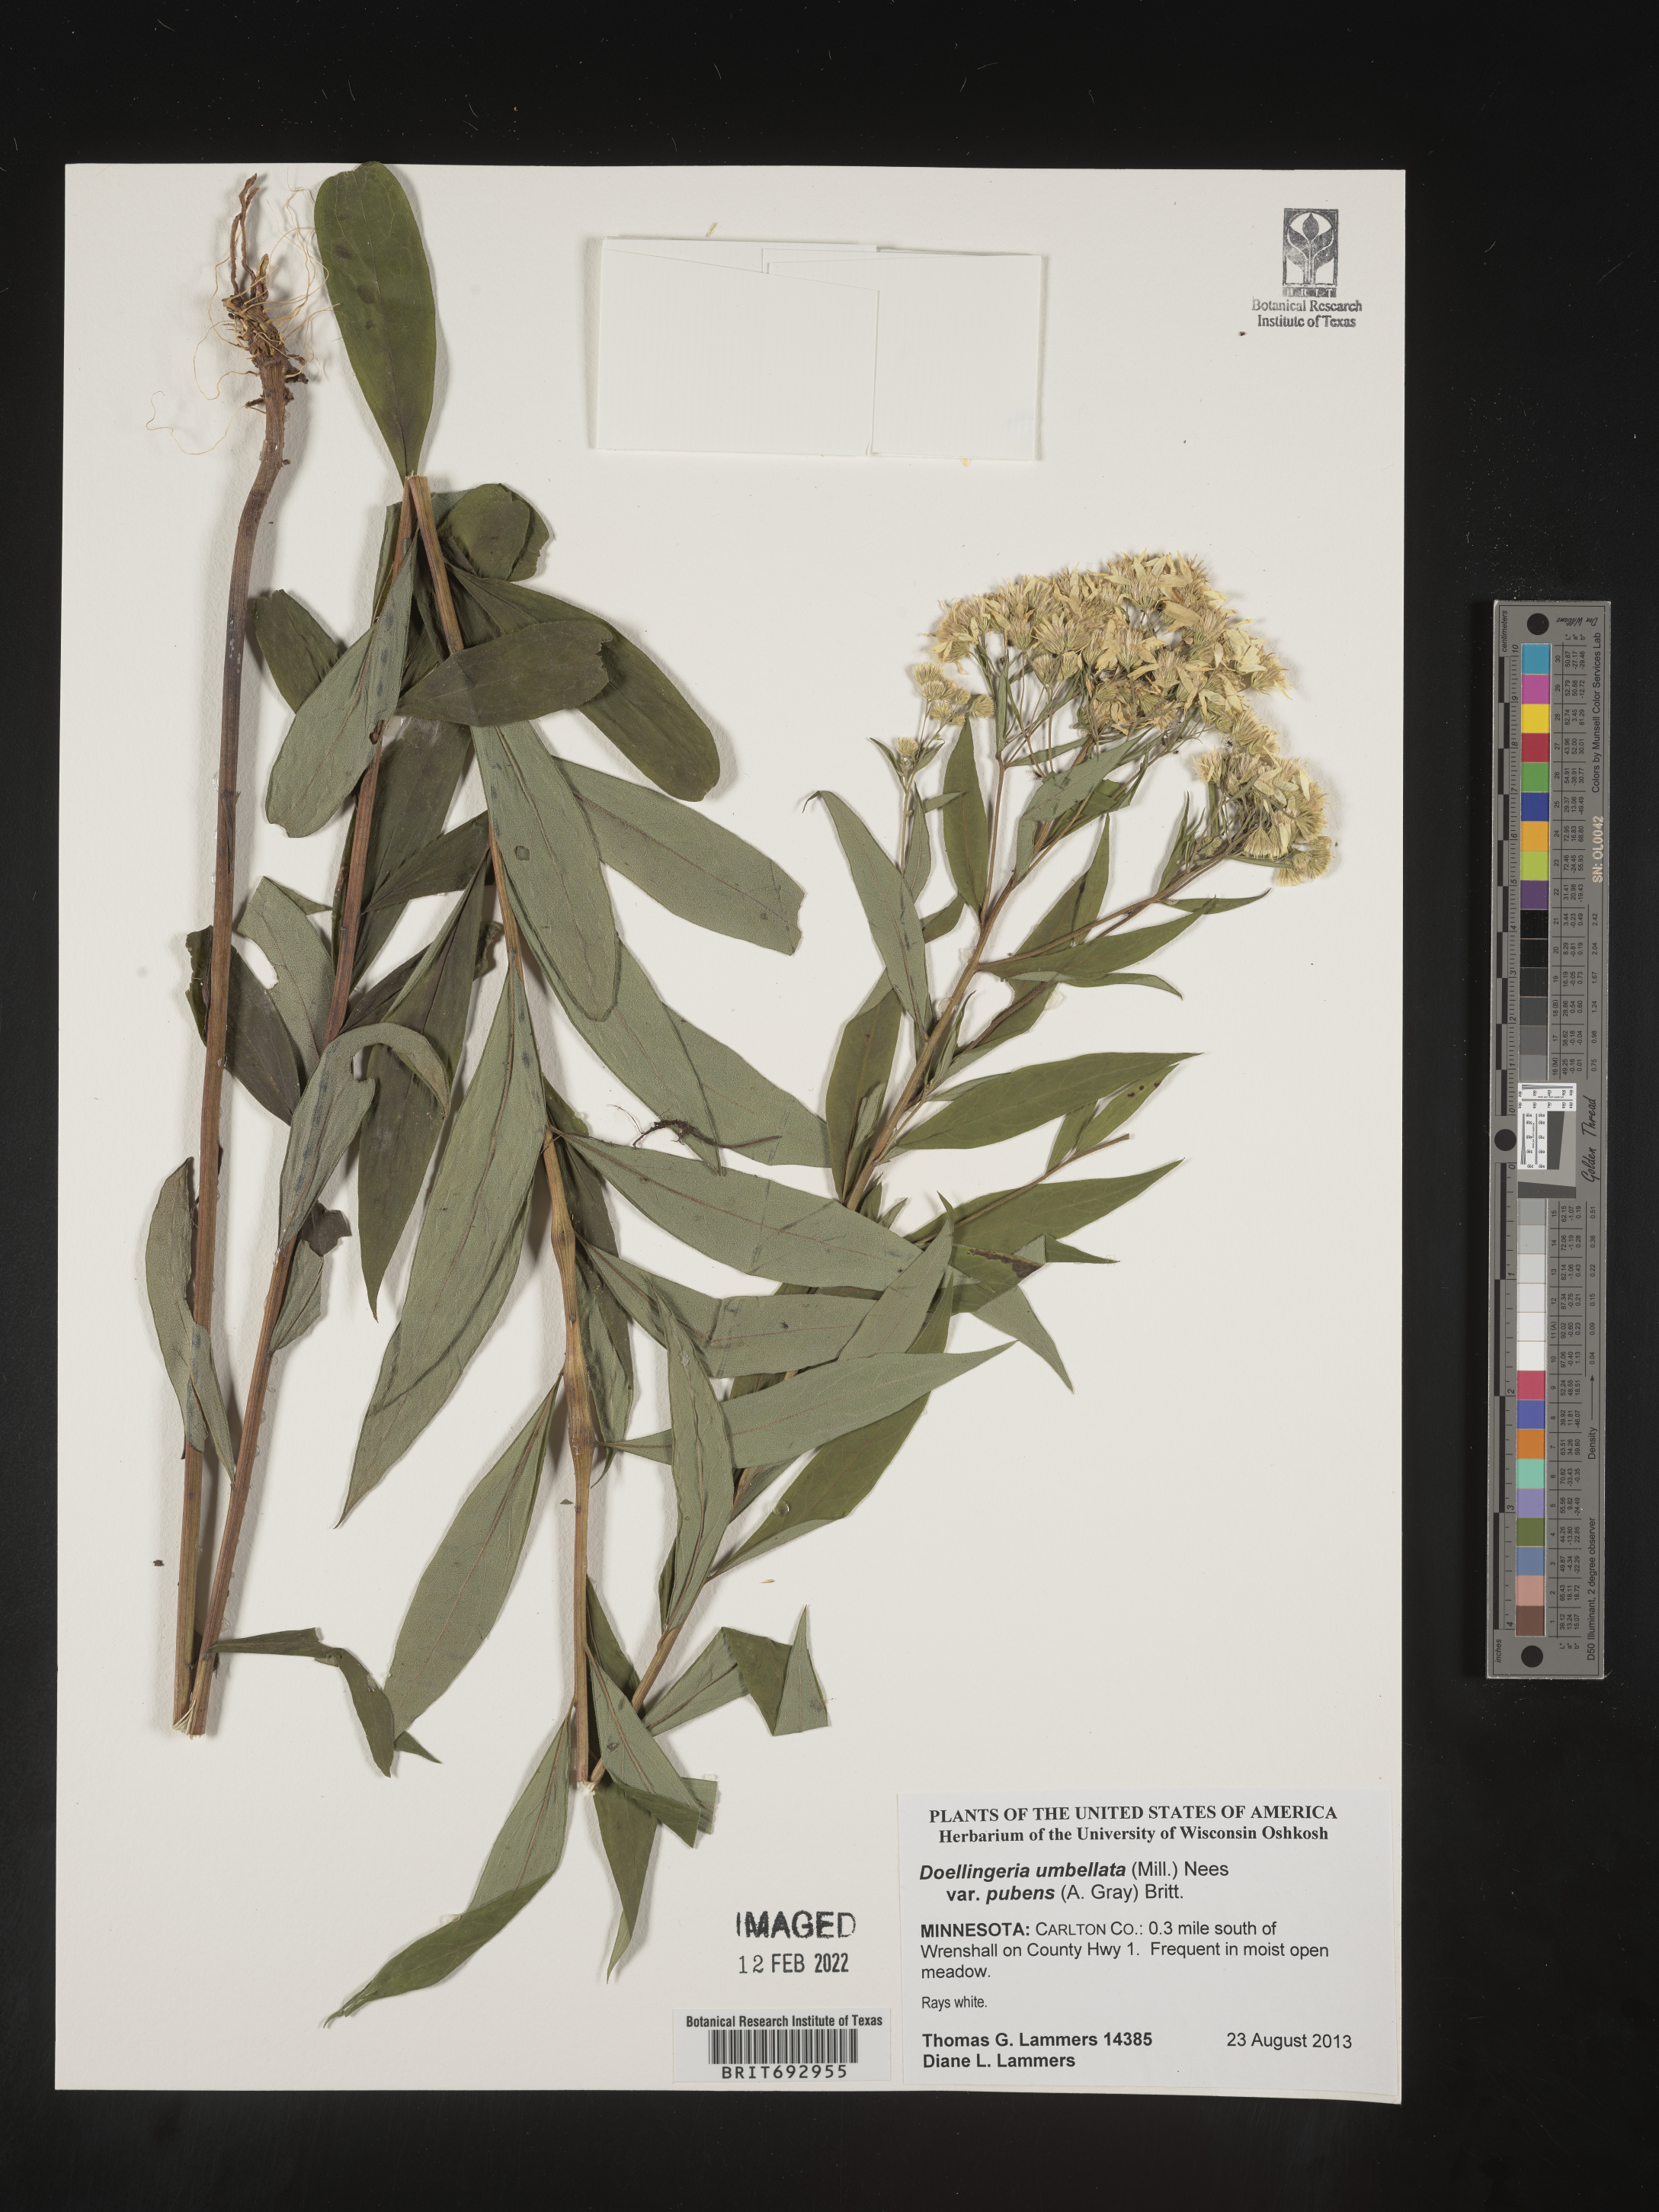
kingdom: Plantae
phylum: Tracheophyta
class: Magnoliopsida
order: Asterales
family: Asteraceae
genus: Doellingeria
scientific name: Doellingeria umbellata
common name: Flat-top white aster
